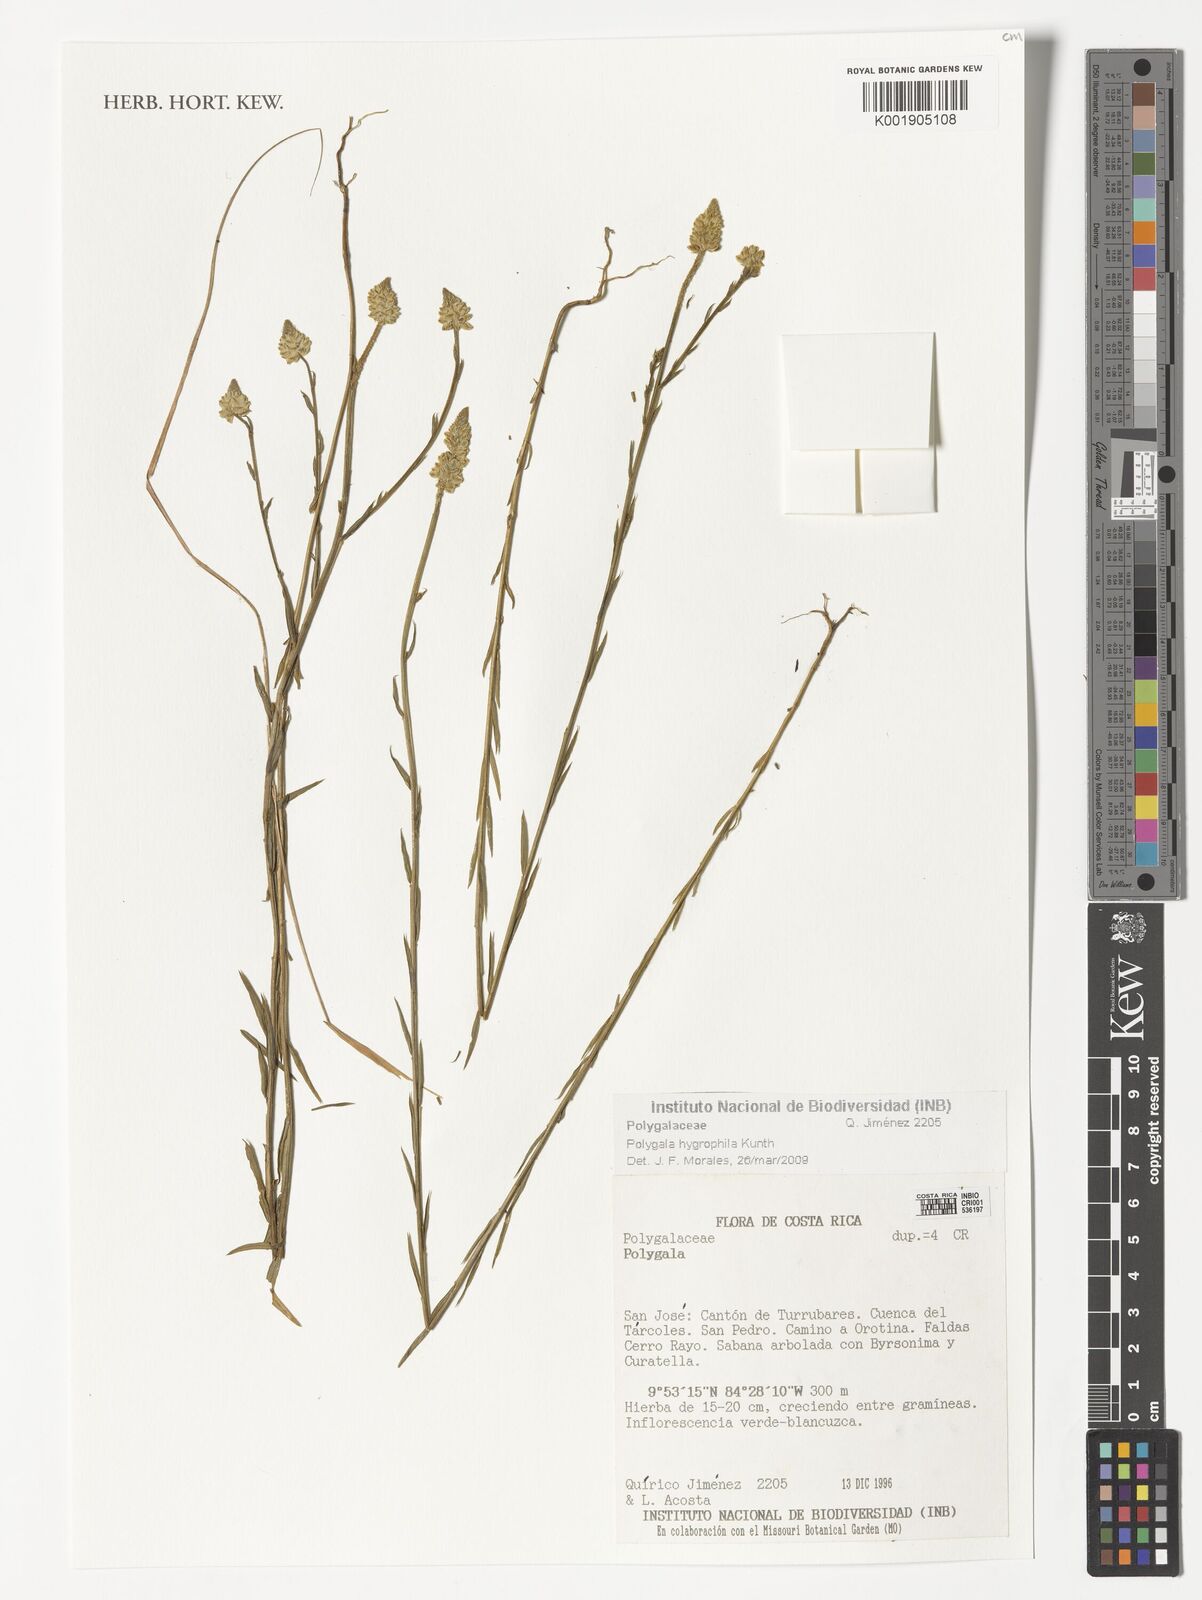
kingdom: Plantae
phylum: Tracheophyta
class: Magnoliopsida
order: Fabales
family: Polygalaceae
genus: Polygala
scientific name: Polygala hygrophila
